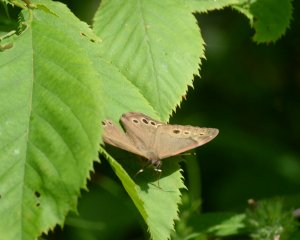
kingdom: Animalia
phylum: Arthropoda
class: Insecta
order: Lepidoptera
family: Nymphalidae
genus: Lethe
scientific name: Lethe anthedon
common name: Northern Pearly-Eye
